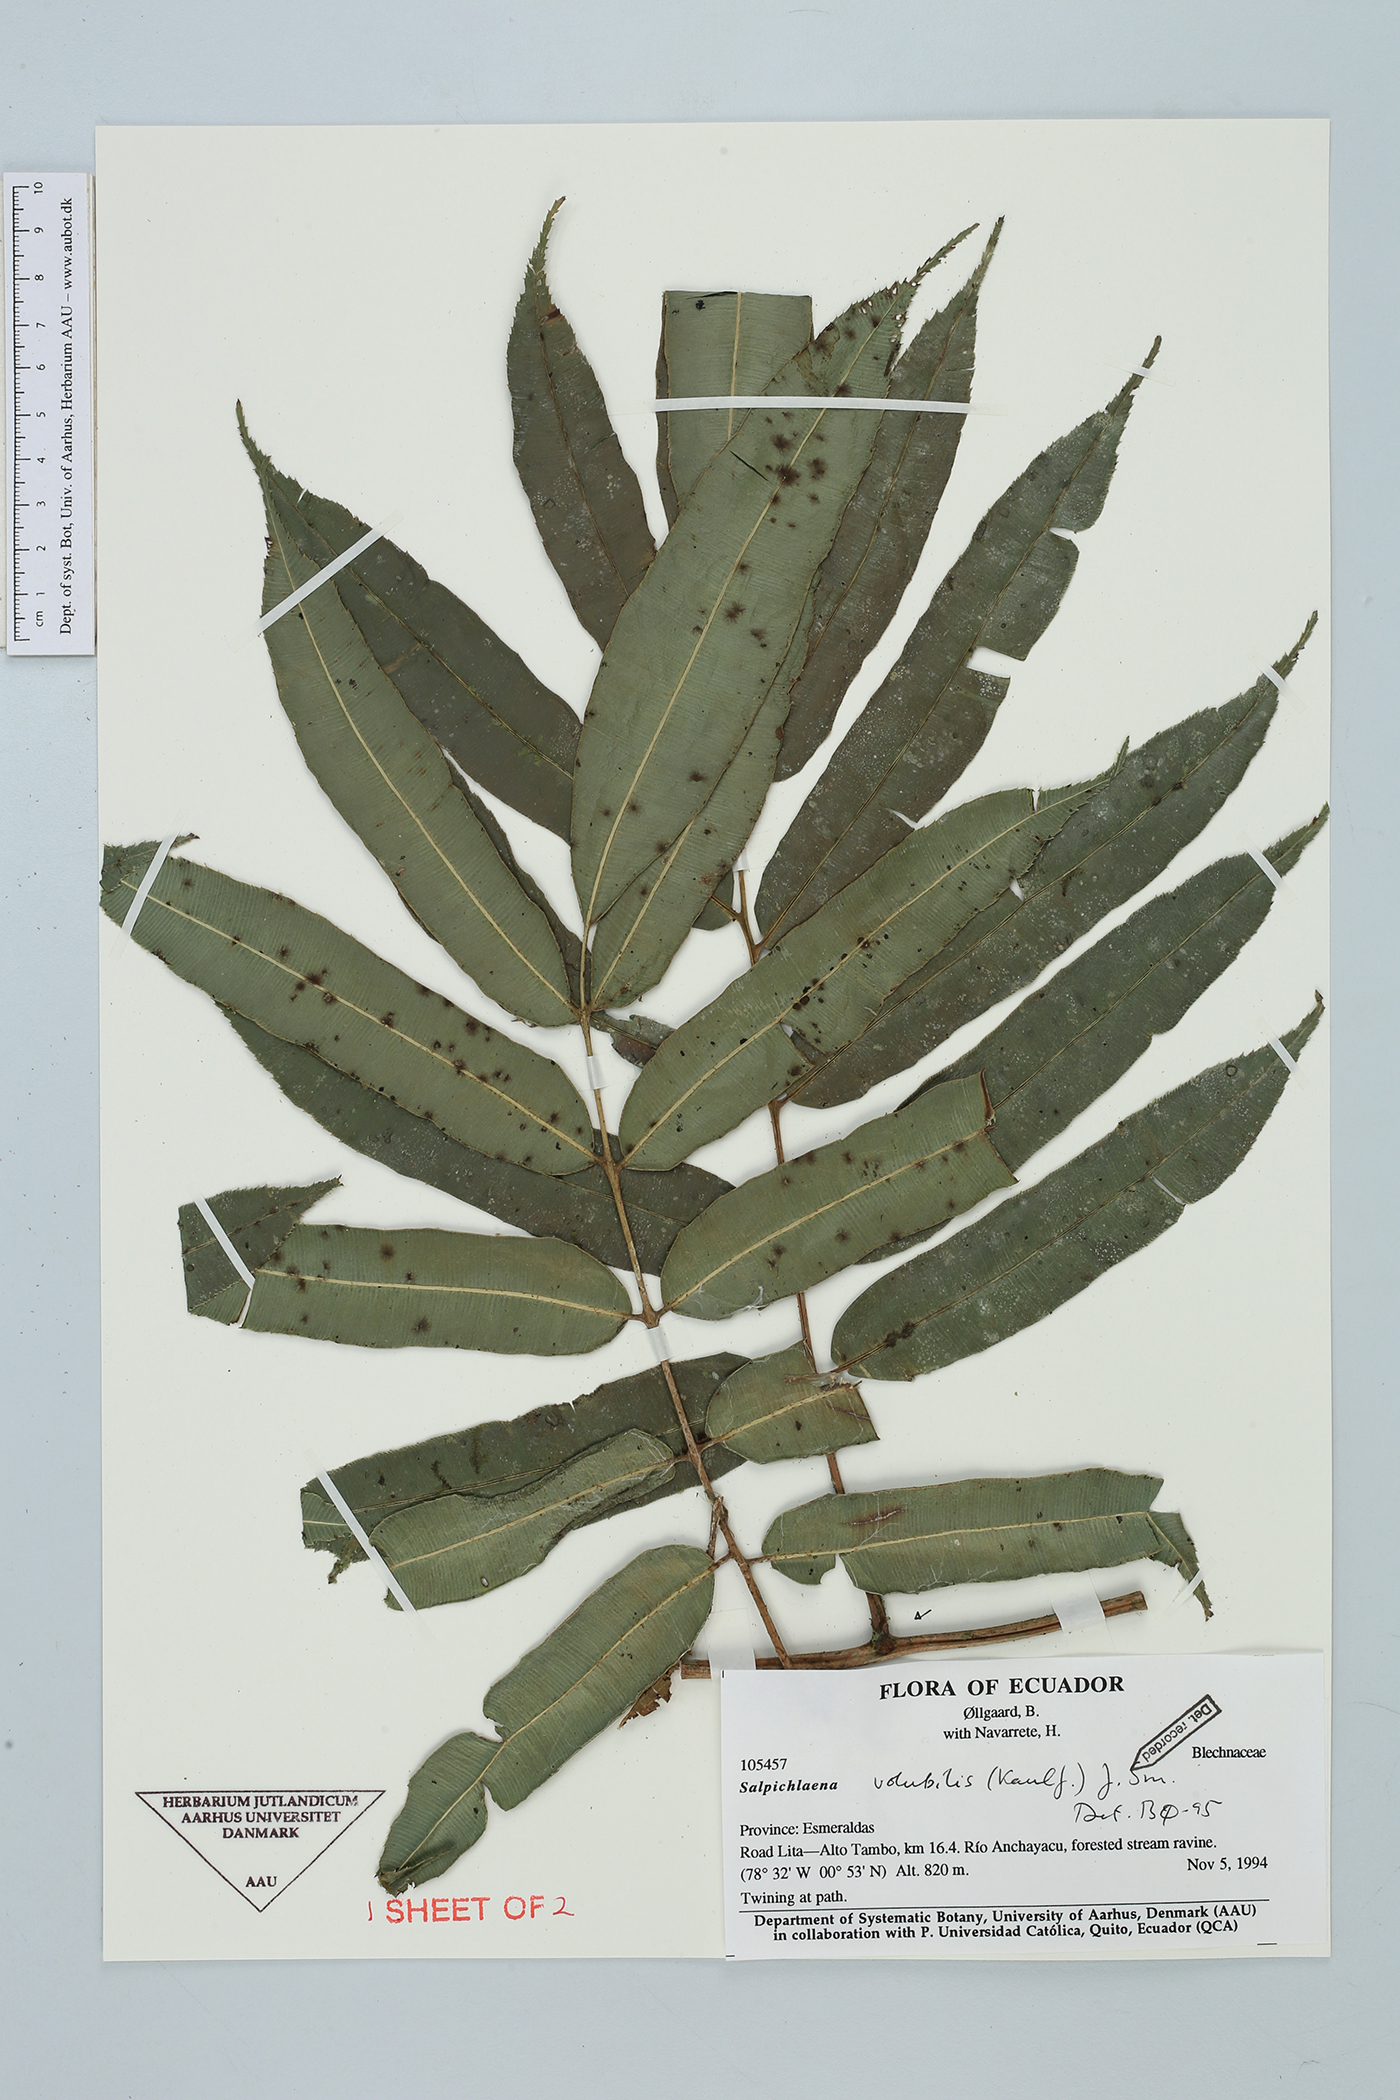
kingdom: Plantae
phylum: Tracheophyta
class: Polypodiopsida
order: Polypodiales
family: Blechnaceae
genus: Salpichlaena
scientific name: Salpichlaena papyrus
